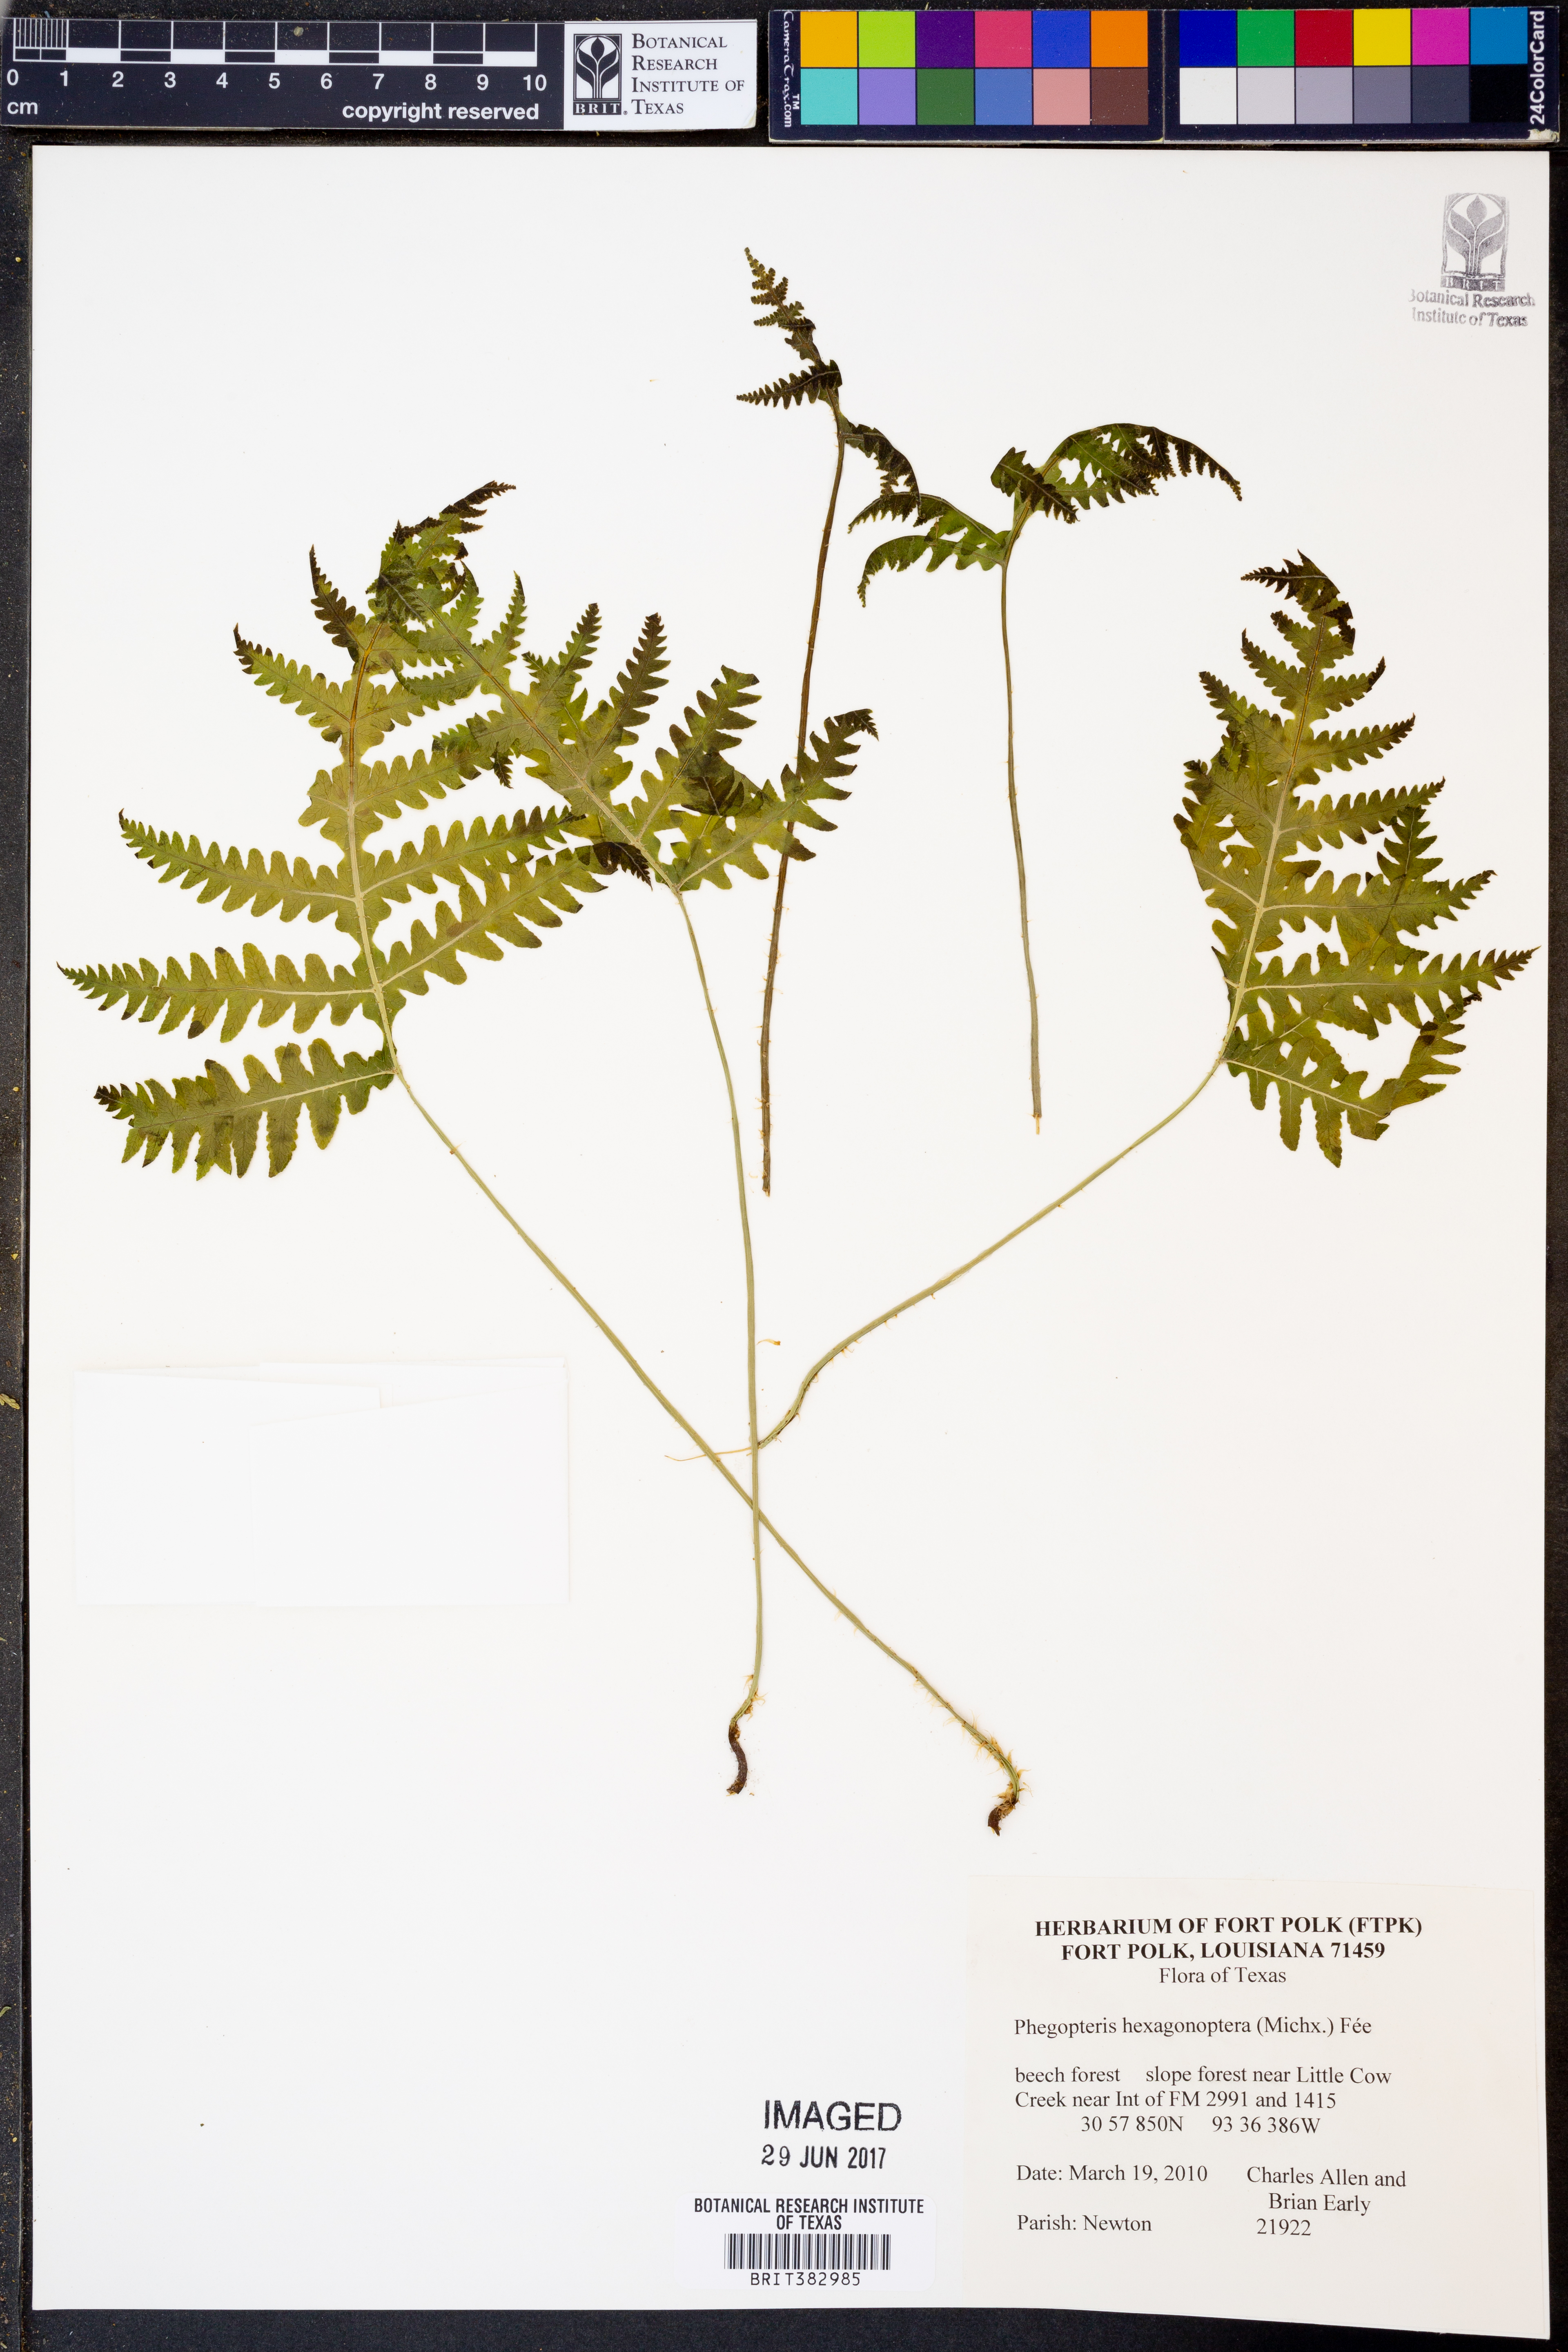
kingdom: Plantae
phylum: Tracheophyta
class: Polypodiopsida
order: Polypodiales
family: Thelypteridaceae
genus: Phegopteris
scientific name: Phegopteris hexagonoptera
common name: Broad beech fern
